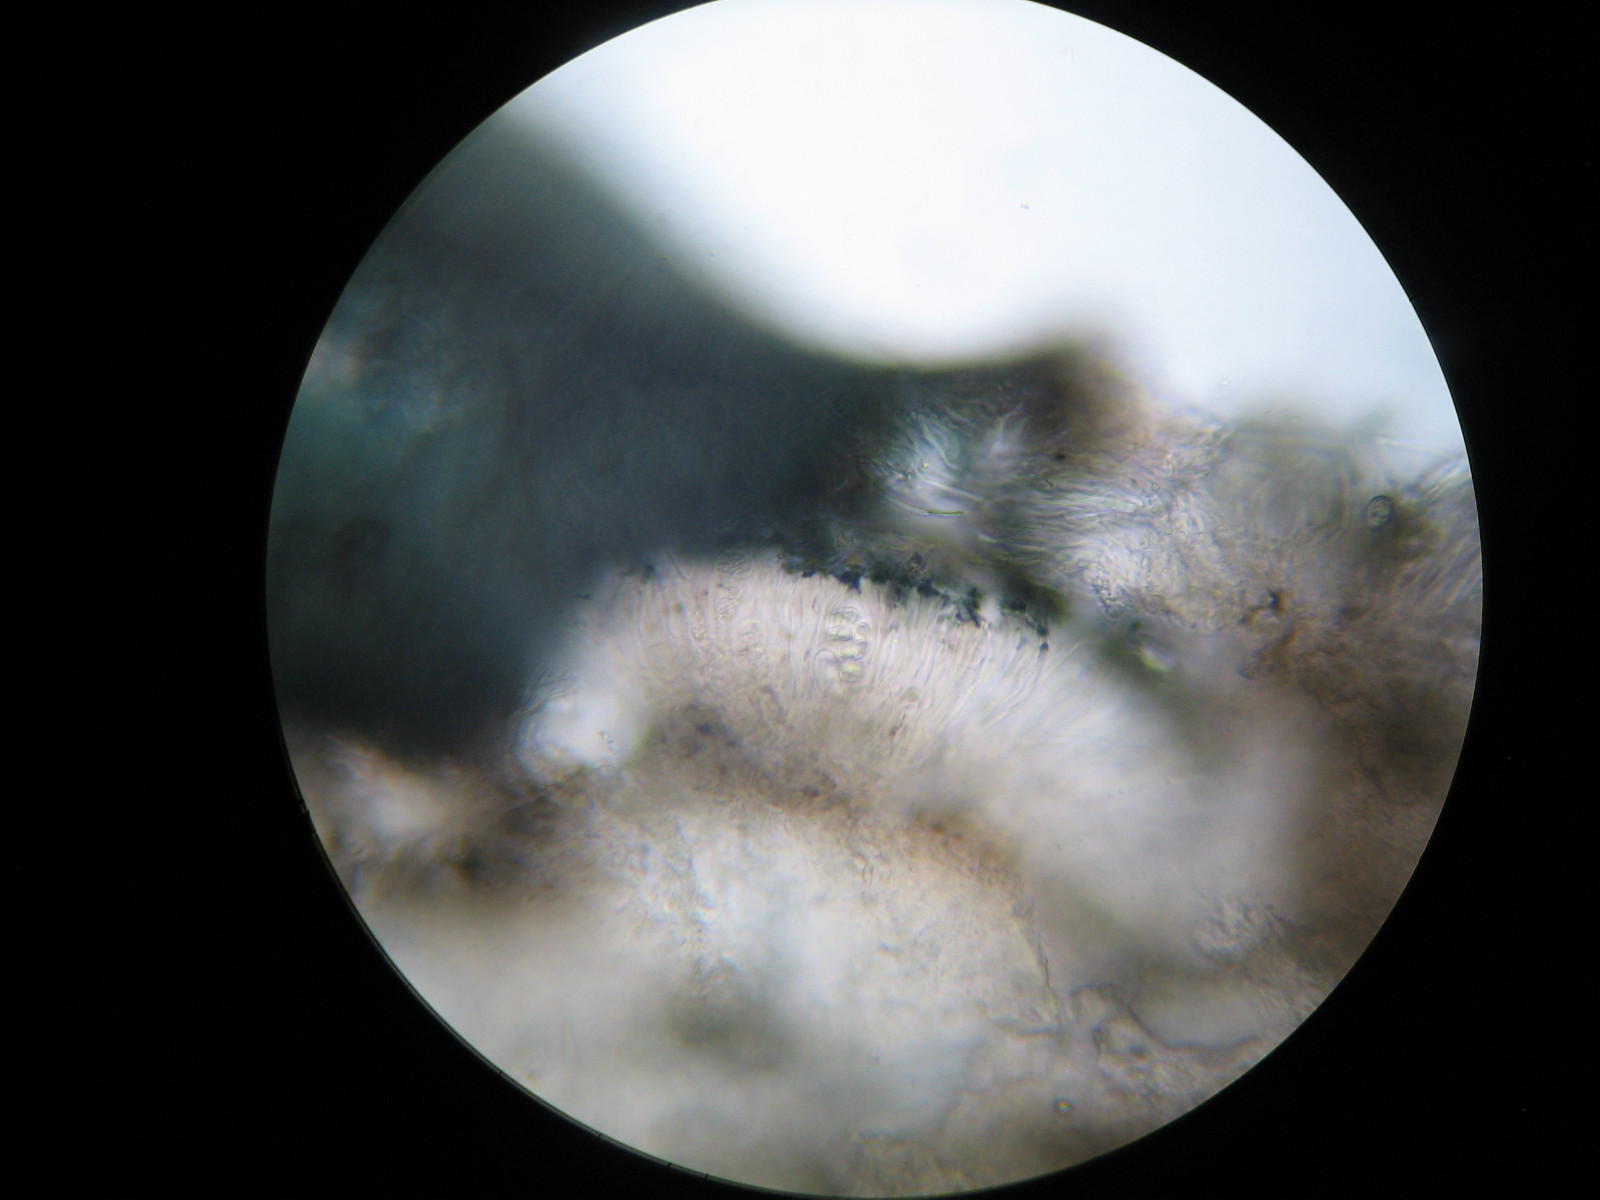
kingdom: Fungi
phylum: Ascomycota
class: Lecanoromycetes
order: Lecanorales
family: Lecanoraceae
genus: Lecidella
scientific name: Lecidella stigmatea
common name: kalkstens-skivelav
